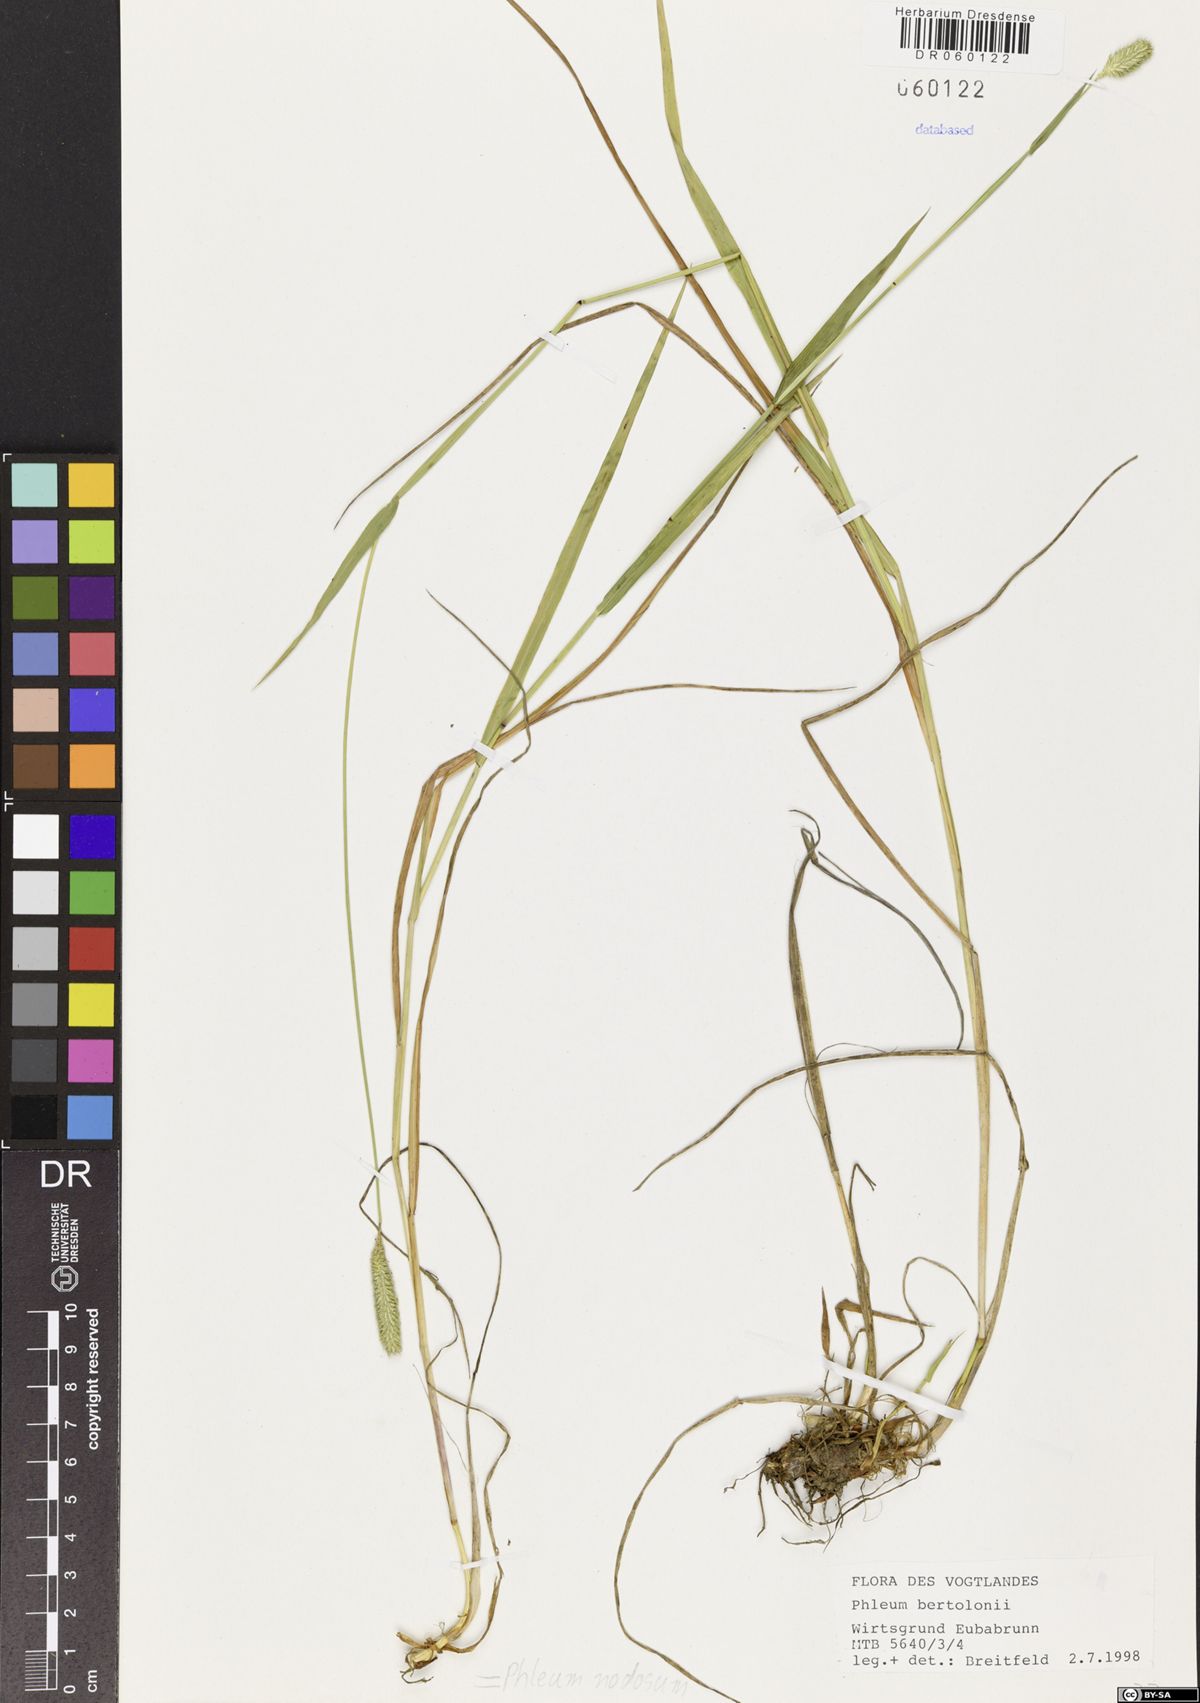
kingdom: Plantae
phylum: Tracheophyta
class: Liliopsida
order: Poales
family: Poaceae
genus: Phleum
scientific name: Phleum pratense
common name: Timothy grass
